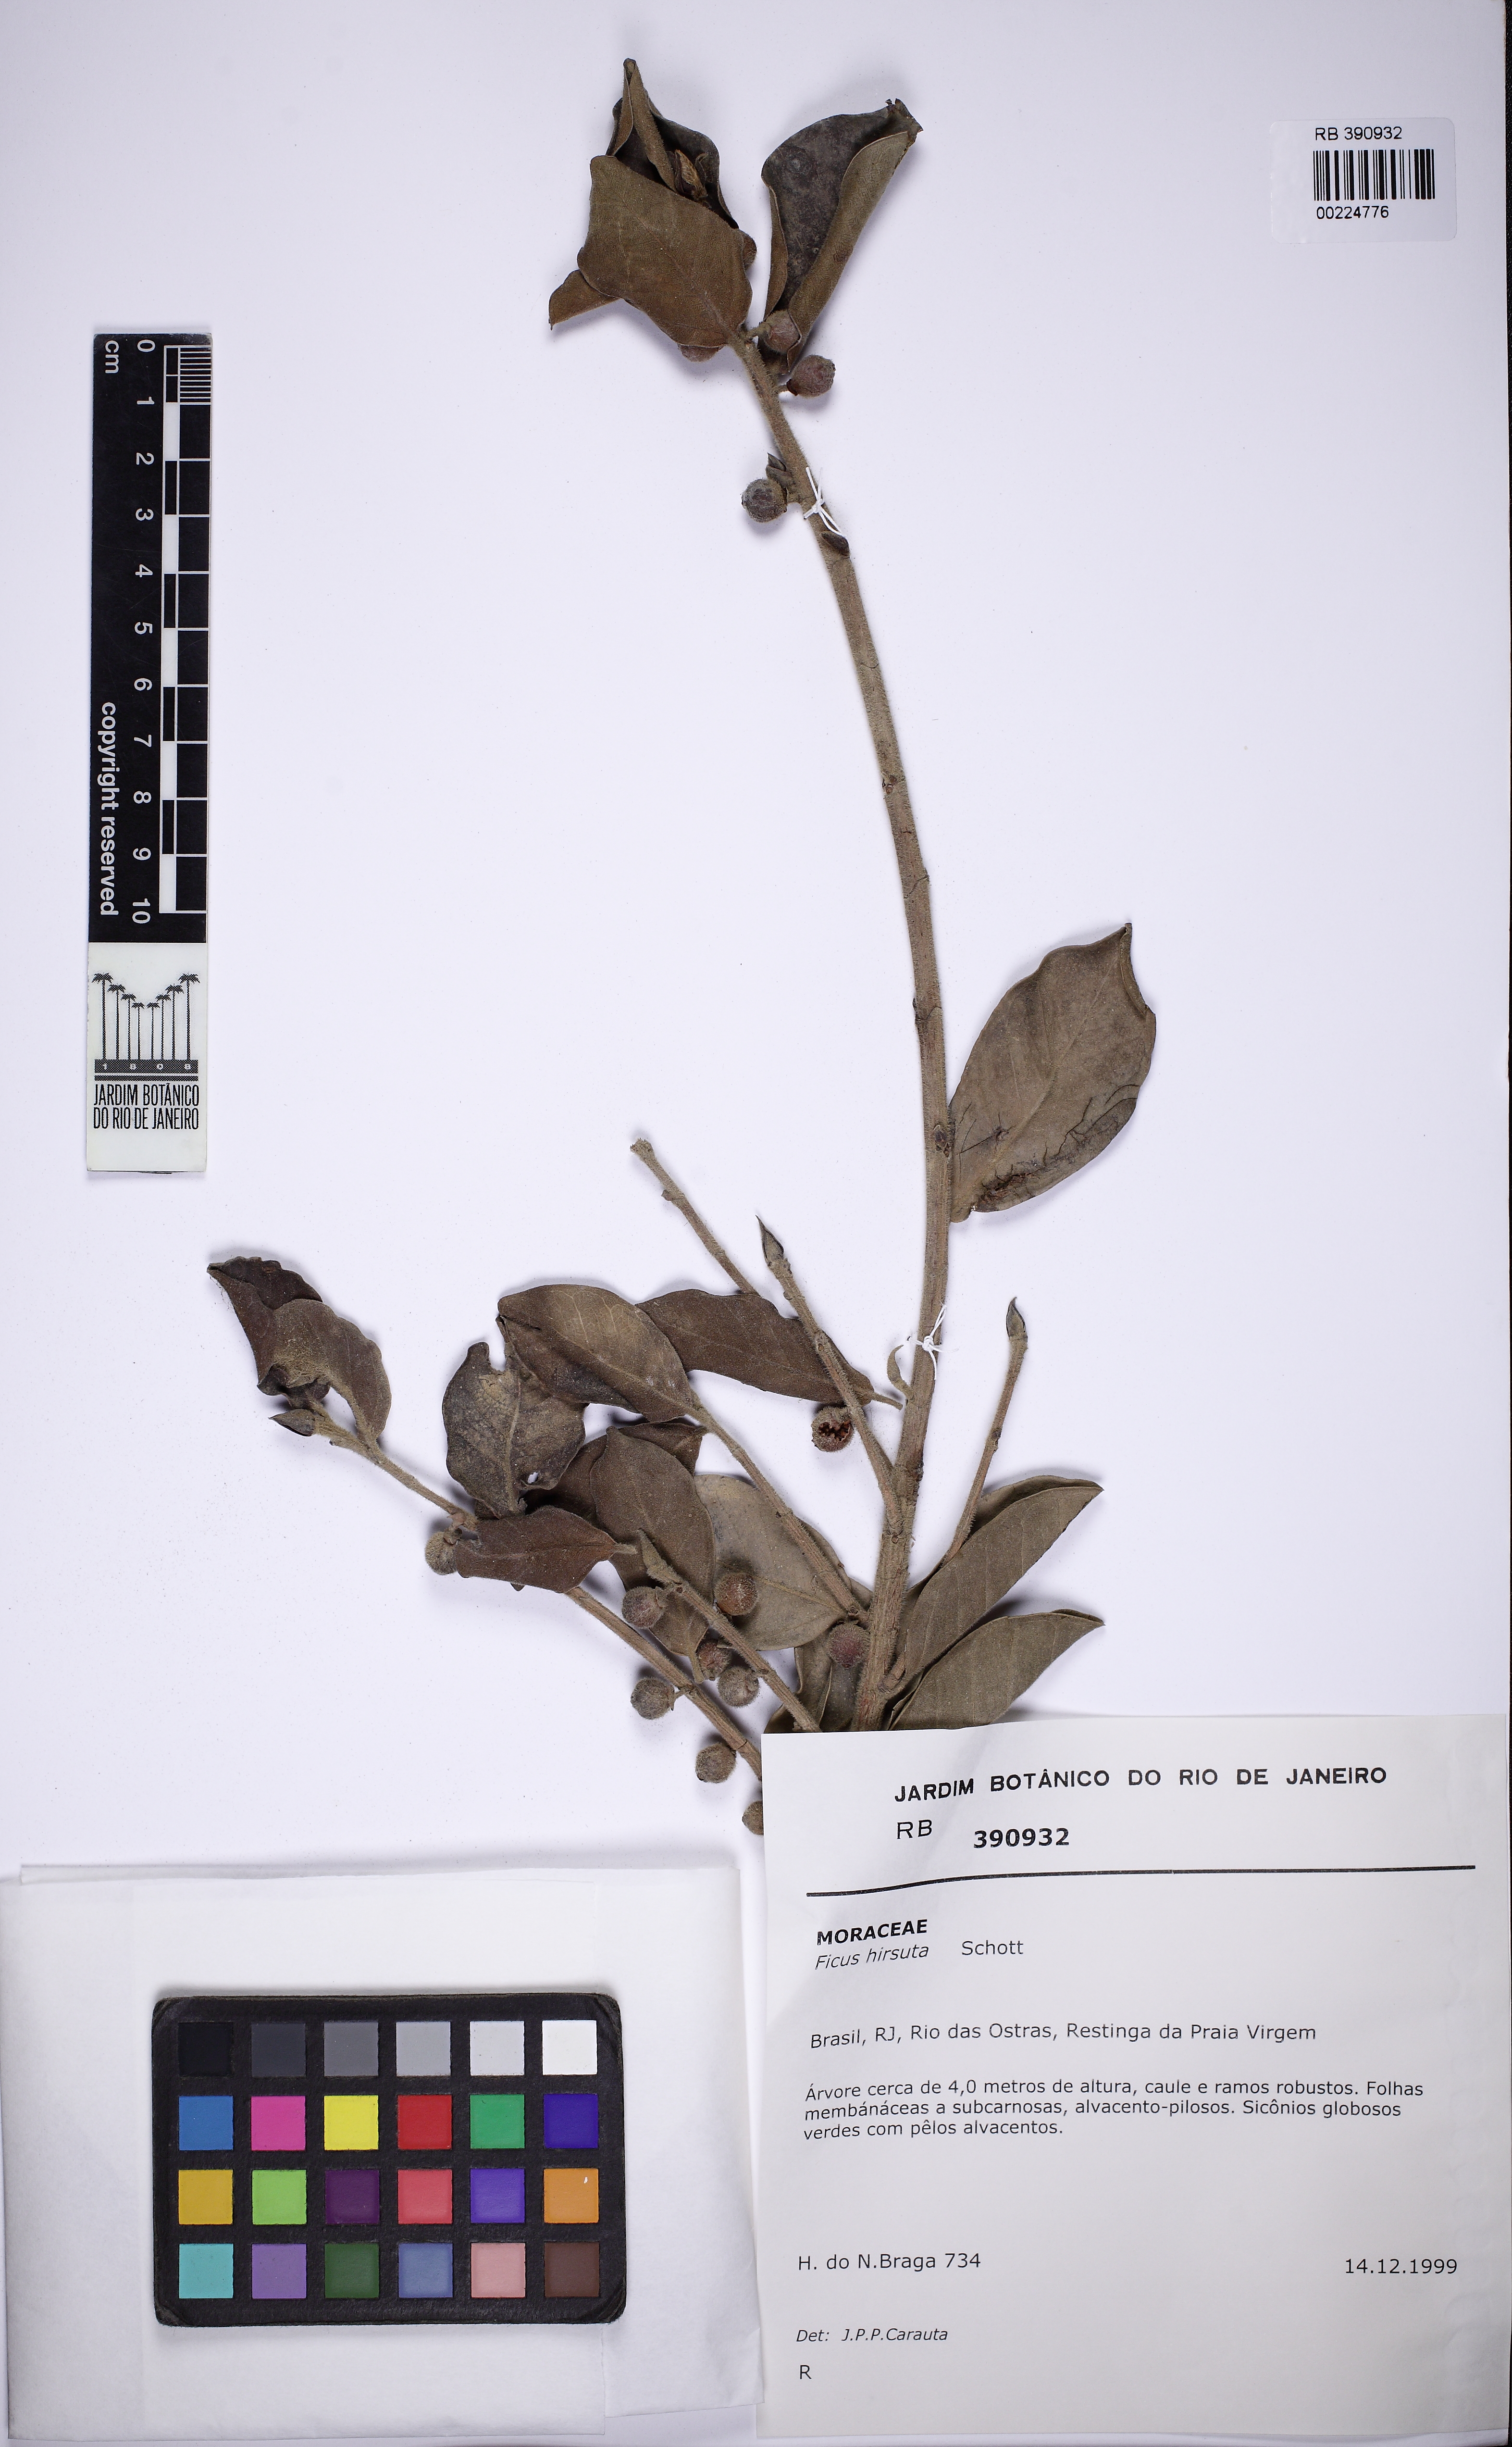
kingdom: Plantae
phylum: Tracheophyta
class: Magnoliopsida
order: Rosales
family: Moraceae
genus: Ficus
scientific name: Ficus hirsuta
